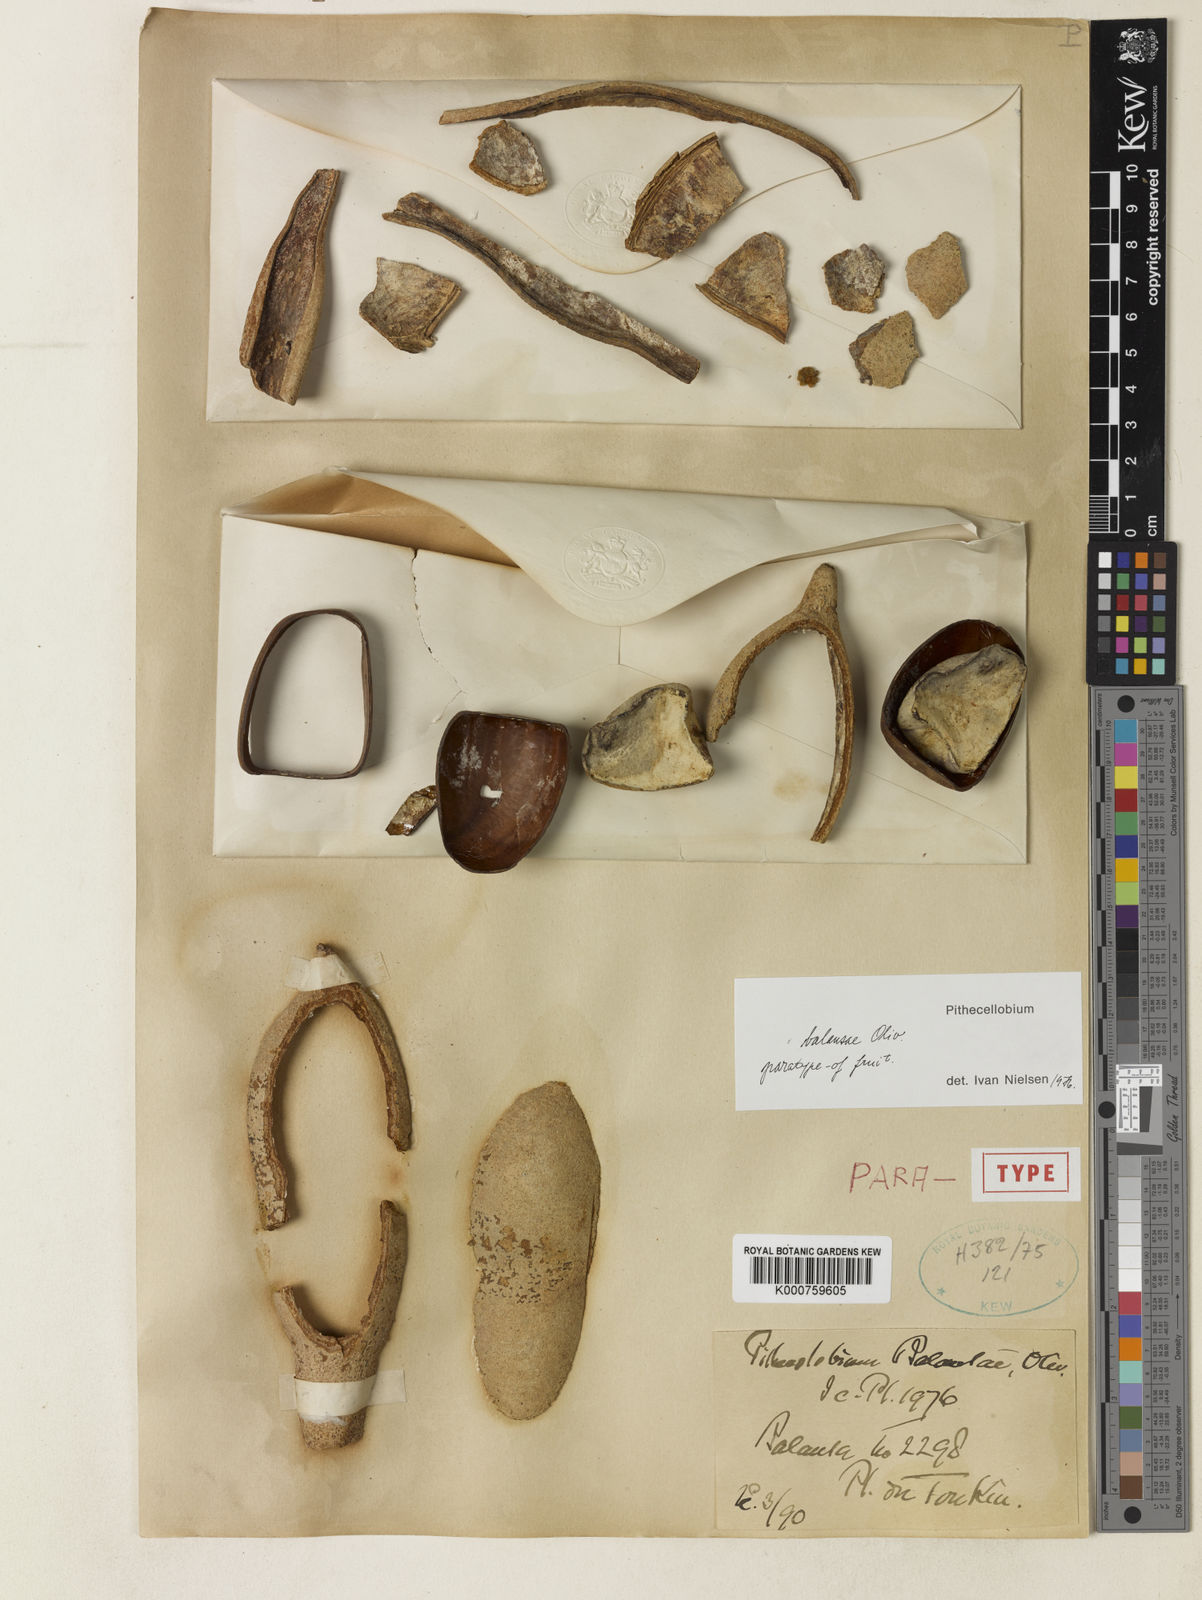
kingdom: Plantae
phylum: Tracheophyta
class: Magnoliopsida
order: Fabales
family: Fabaceae
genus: Archidendron
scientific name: Archidendron balansae
